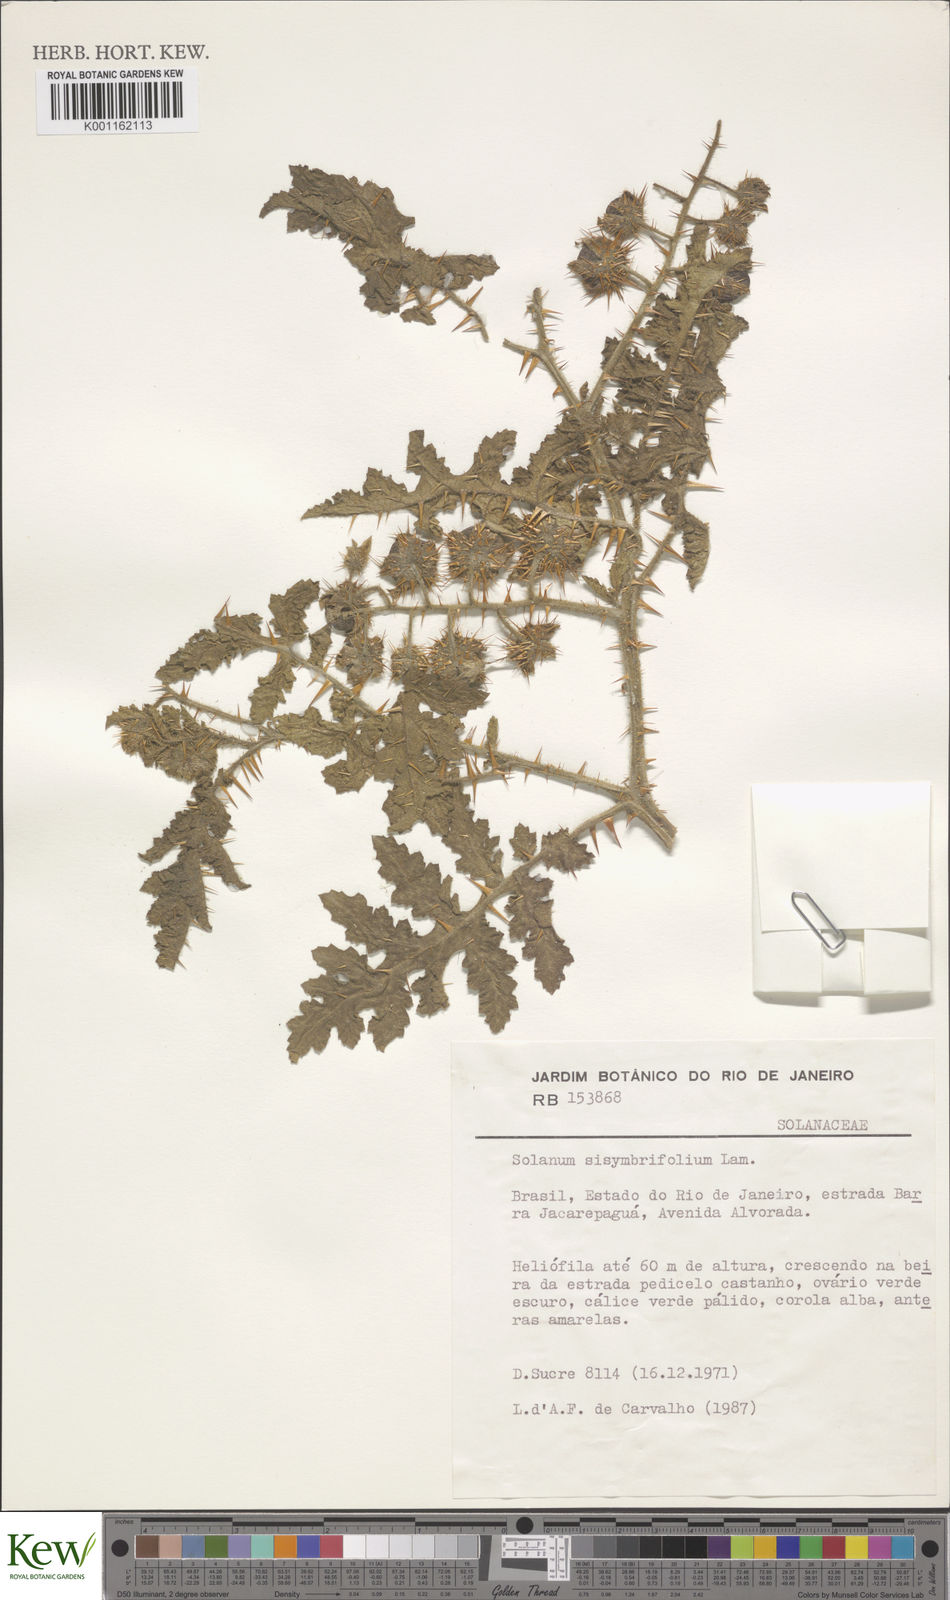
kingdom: Plantae
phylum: Tracheophyta
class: Magnoliopsida
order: Solanales
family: Solanaceae
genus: Solanum
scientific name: Solanum sisymbriifolium
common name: Red buffalo-bur
